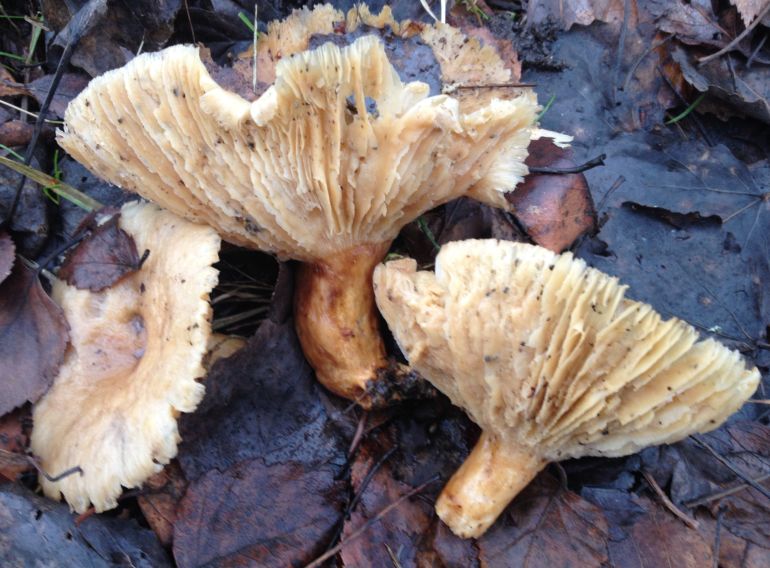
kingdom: Fungi
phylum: Basidiomycota
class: Agaricomycetes
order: Russulales
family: Russulaceae
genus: Lactarius
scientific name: Lactarius pubescens
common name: dunet mælkehat
